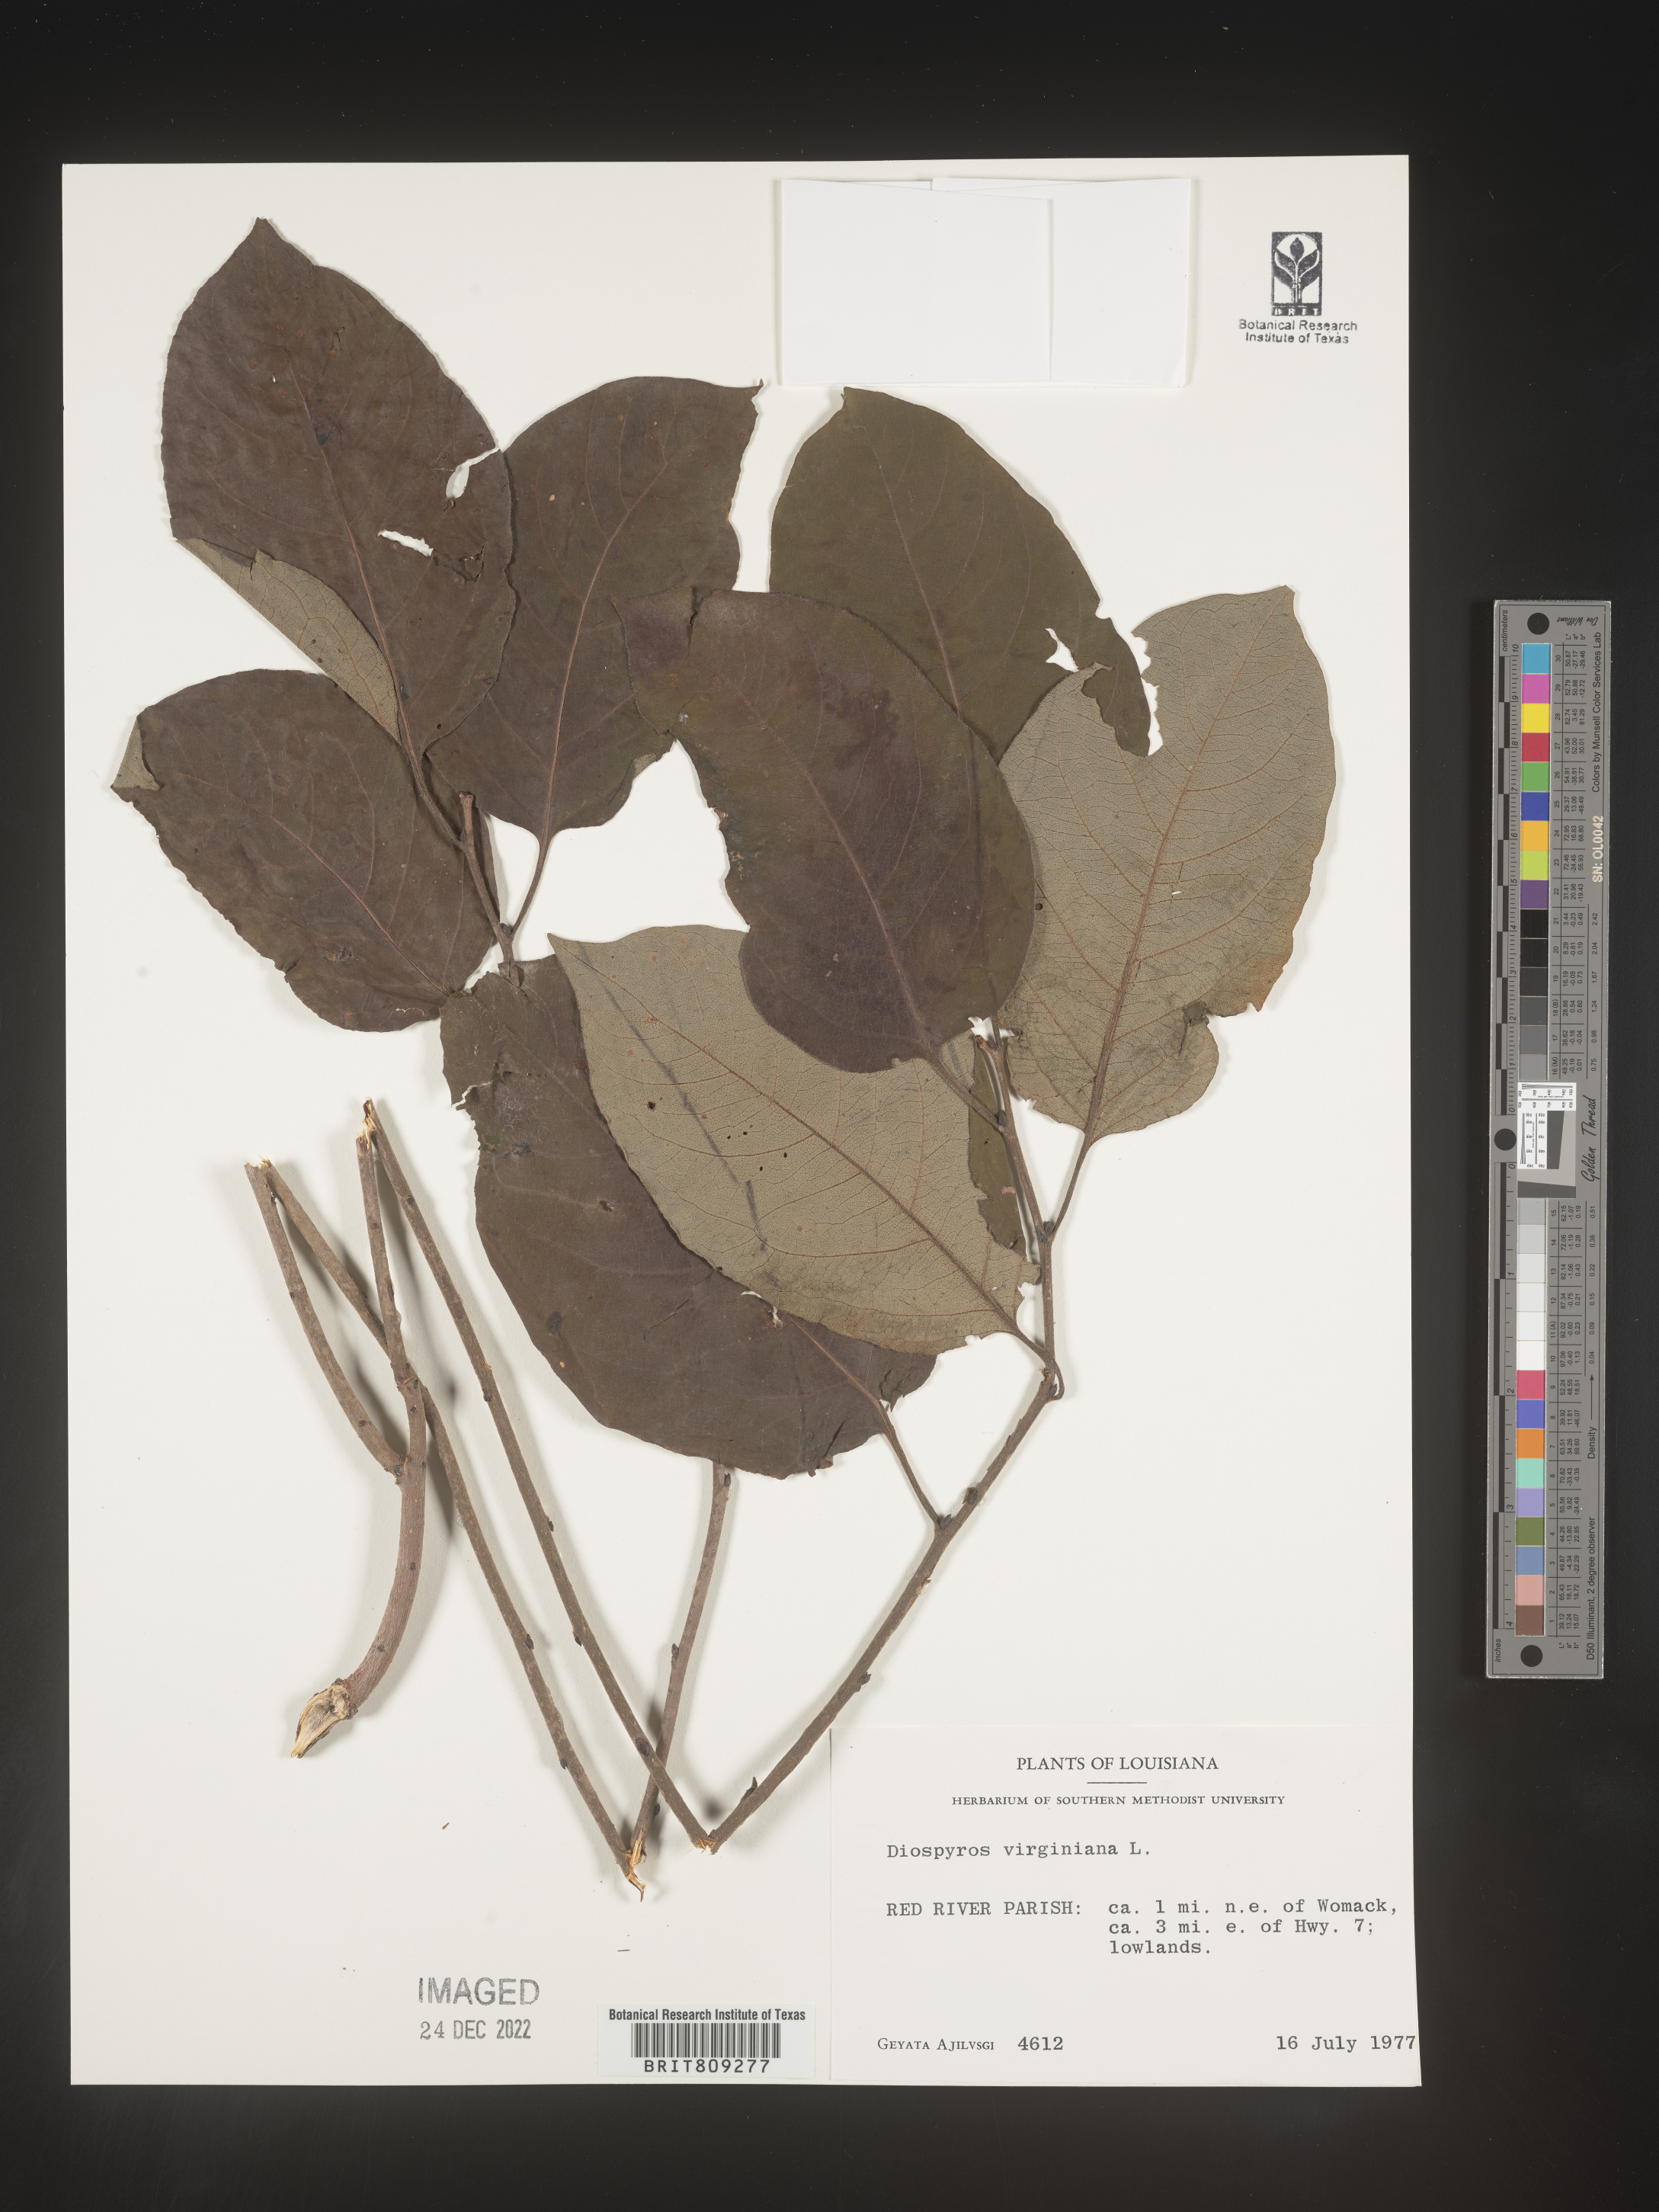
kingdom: Plantae
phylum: Tracheophyta
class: Magnoliopsida
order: Ericales
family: Ebenaceae
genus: Diospyros
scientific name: Diospyros virginiana
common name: Persimmon
